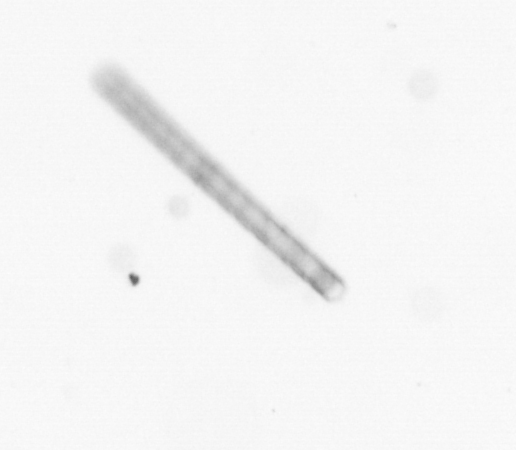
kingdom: Chromista
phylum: Ochrophyta
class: Bacillariophyceae
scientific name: Bacillariophyceae
